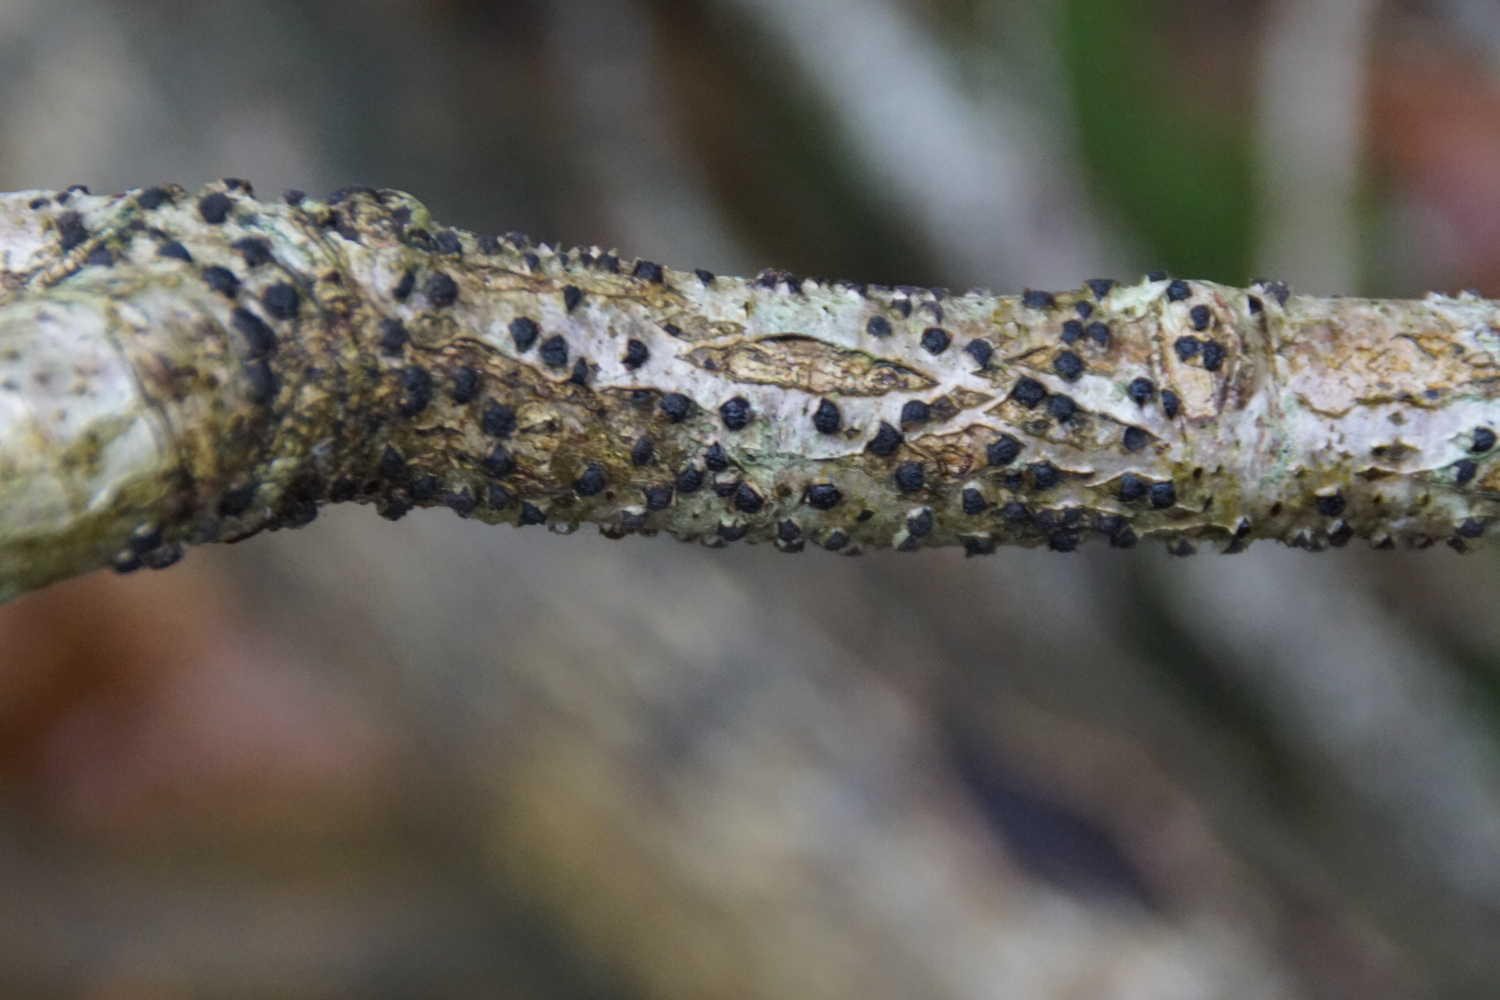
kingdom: Fungi
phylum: Ascomycota
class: Sordariomycetes
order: Xylariales
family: Diatrypaceae
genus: Diatrypella
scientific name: Diatrypella quercina
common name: ege-kulskorpe
